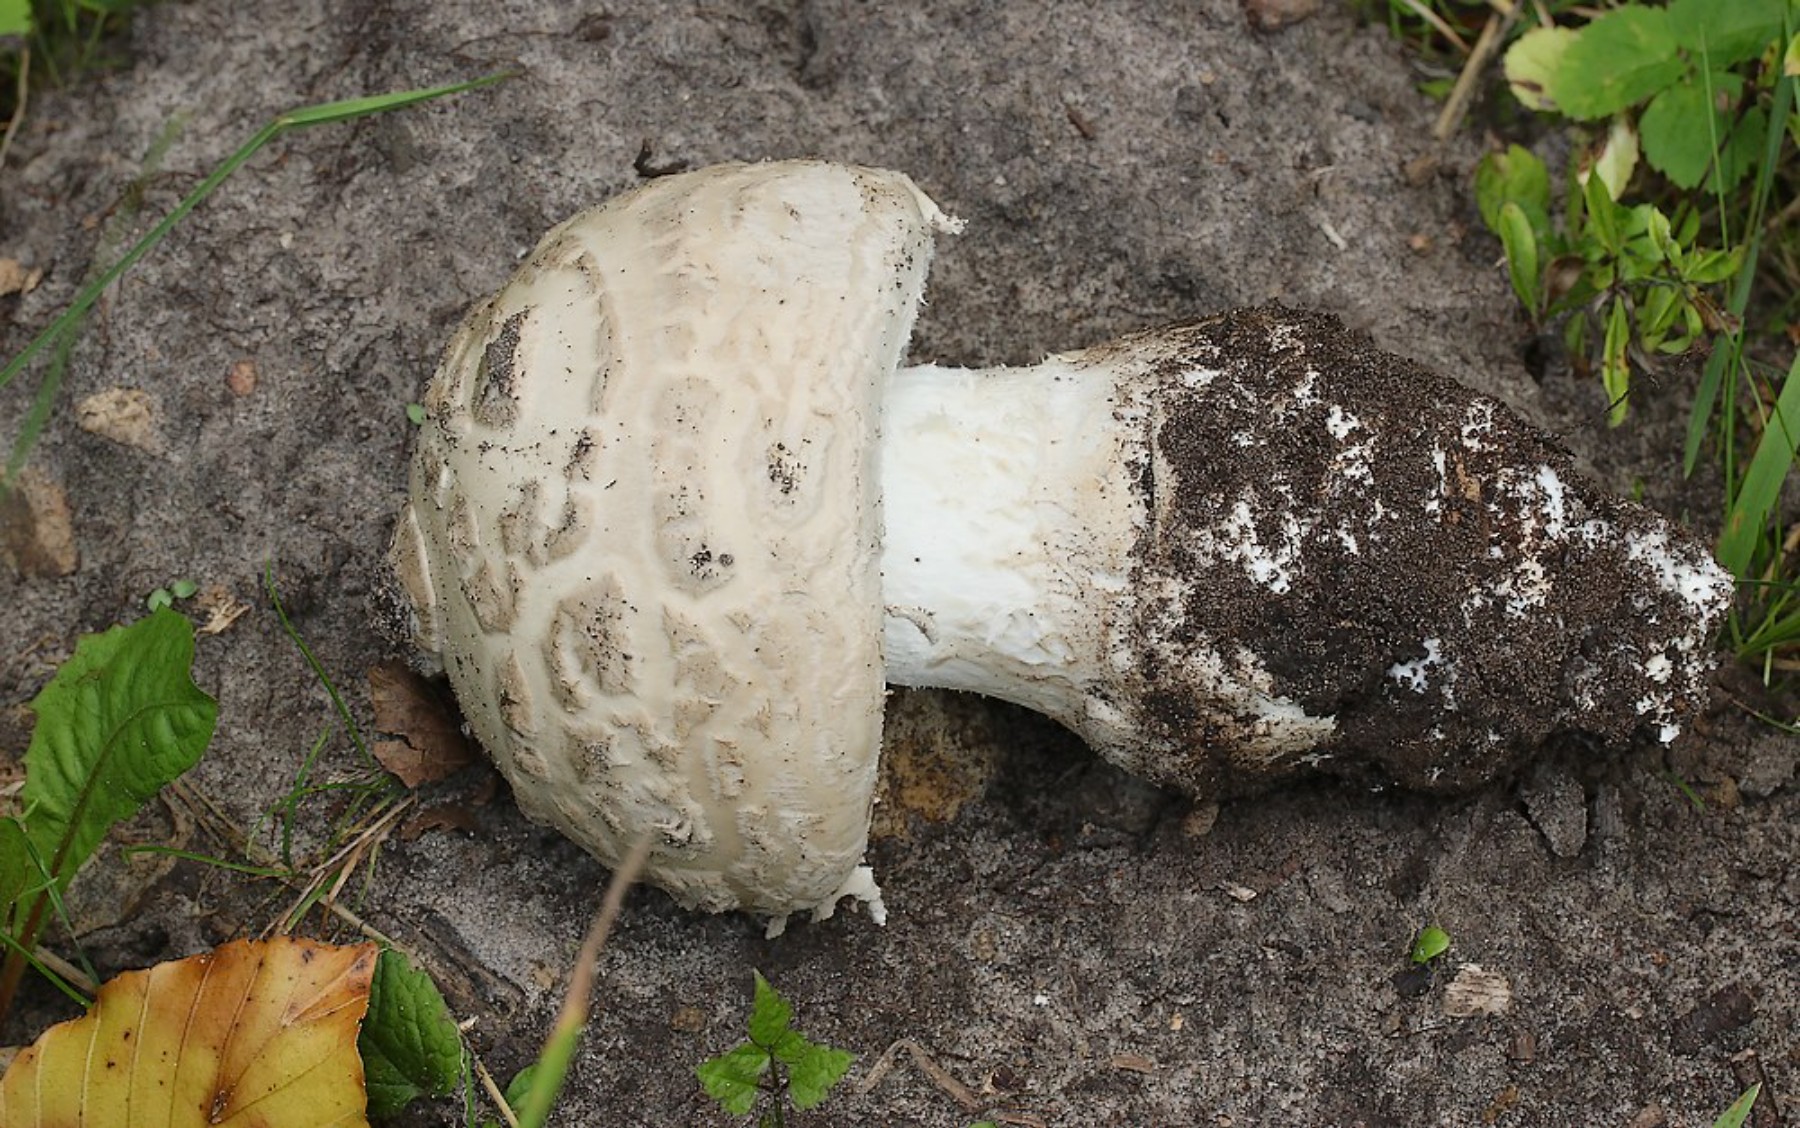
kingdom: Fungi
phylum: Basidiomycota
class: Agaricomycetes
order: Agaricales
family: Amanitaceae
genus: Amanita
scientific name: Amanita
